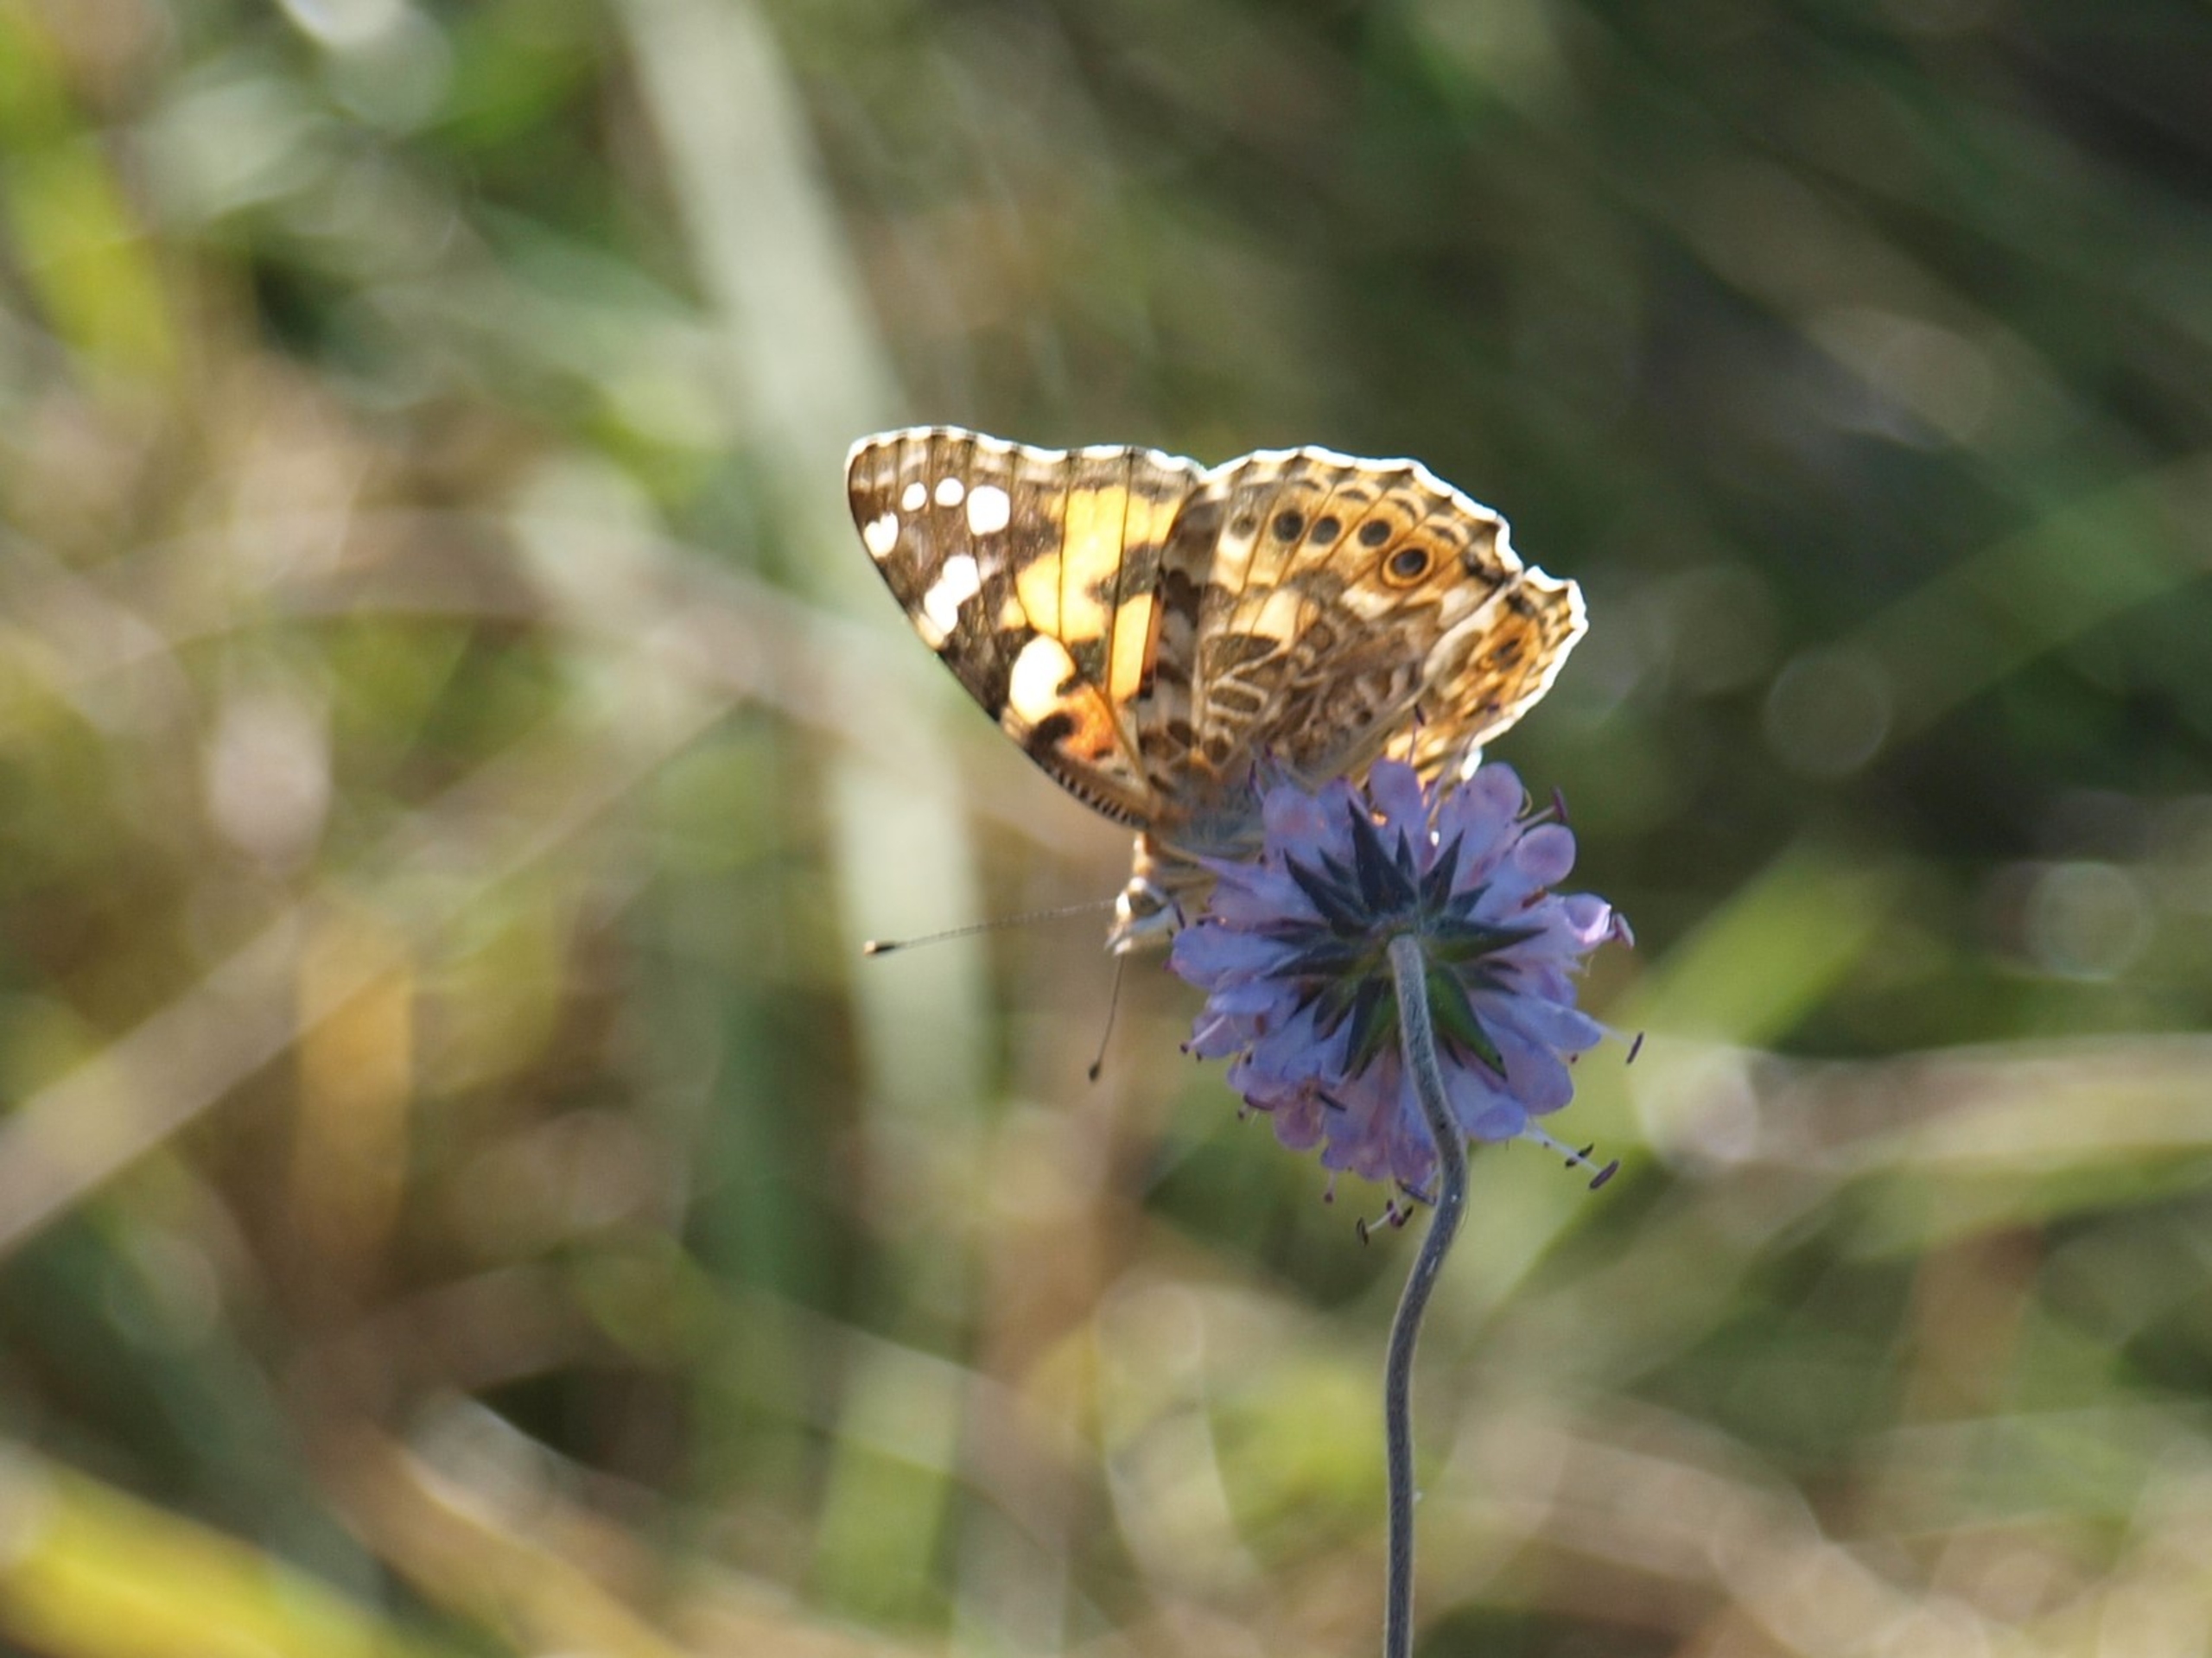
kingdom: Animalia
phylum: Arthropoda
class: Insecta
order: Lepidoptera
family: Nymphalidae
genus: Vanessa
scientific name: Vanessa cardui
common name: Tidselsommerfugl
